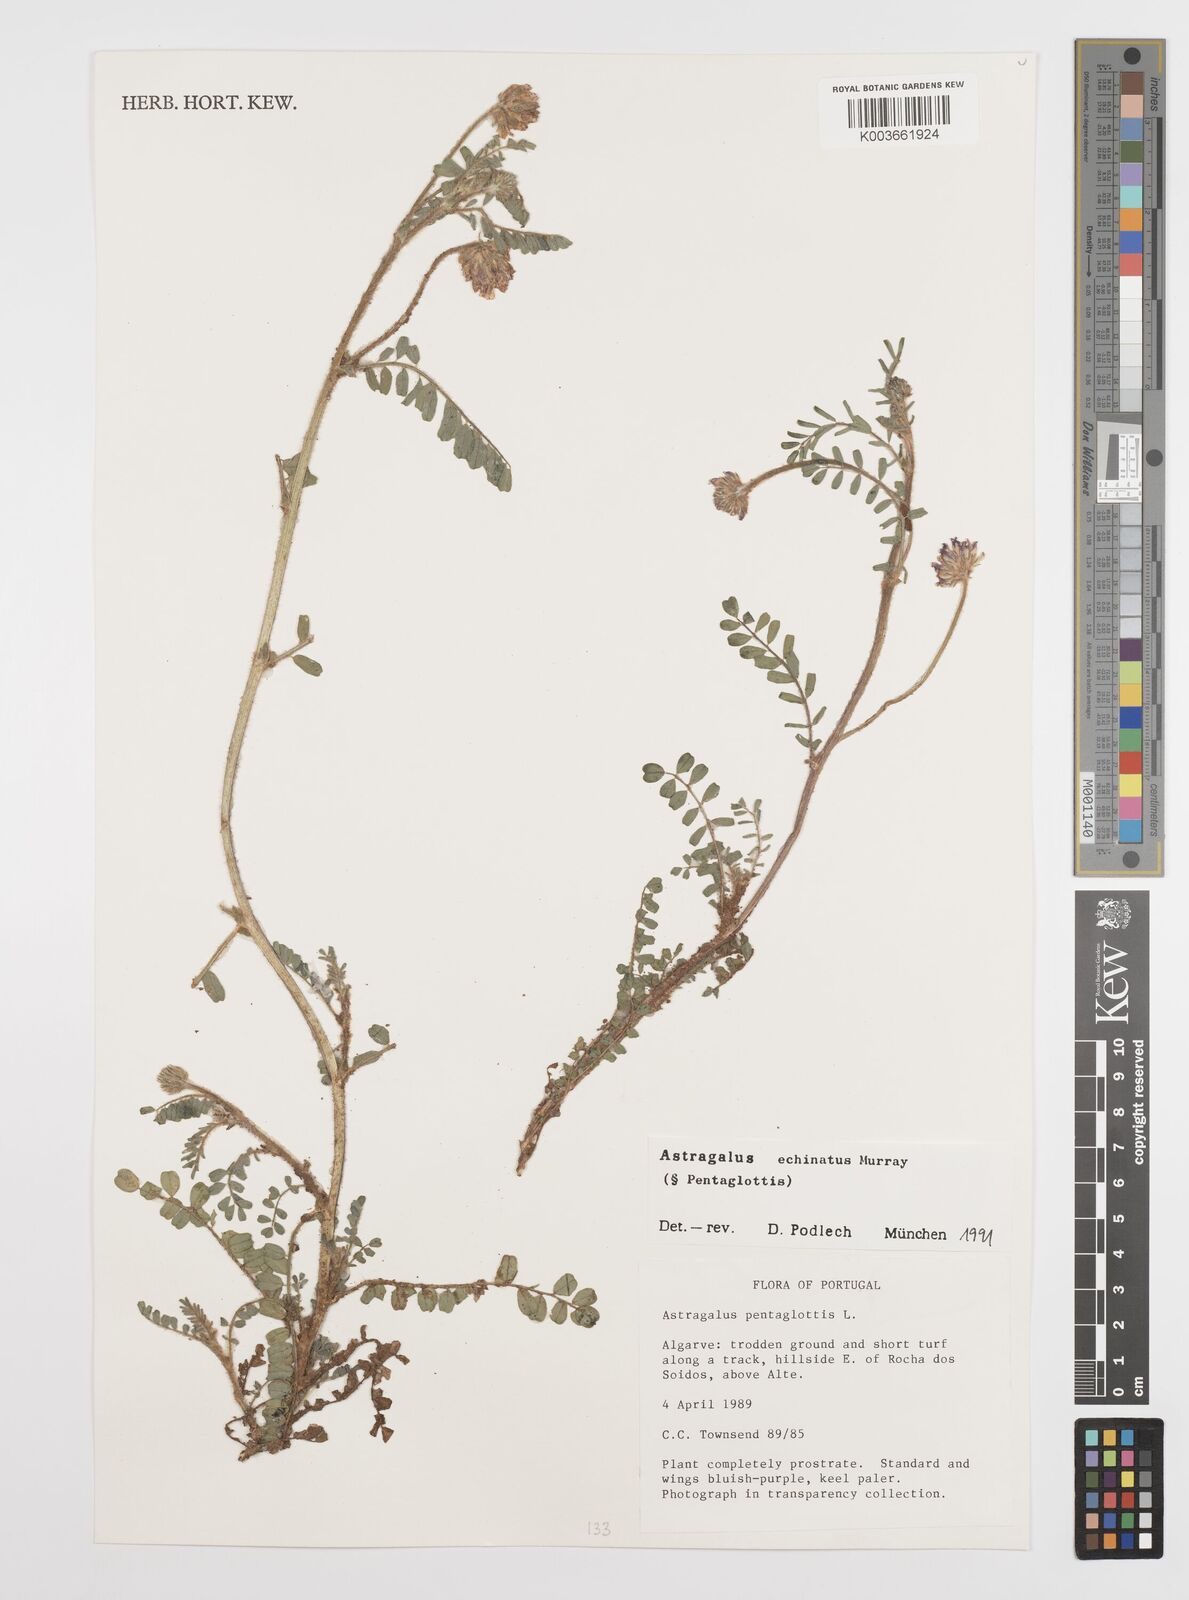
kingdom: Plantae
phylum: Tracheophyta
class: Magnoliopsida
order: Fabales
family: Fabaceae
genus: Astragalus
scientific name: Astragalus echinatus
